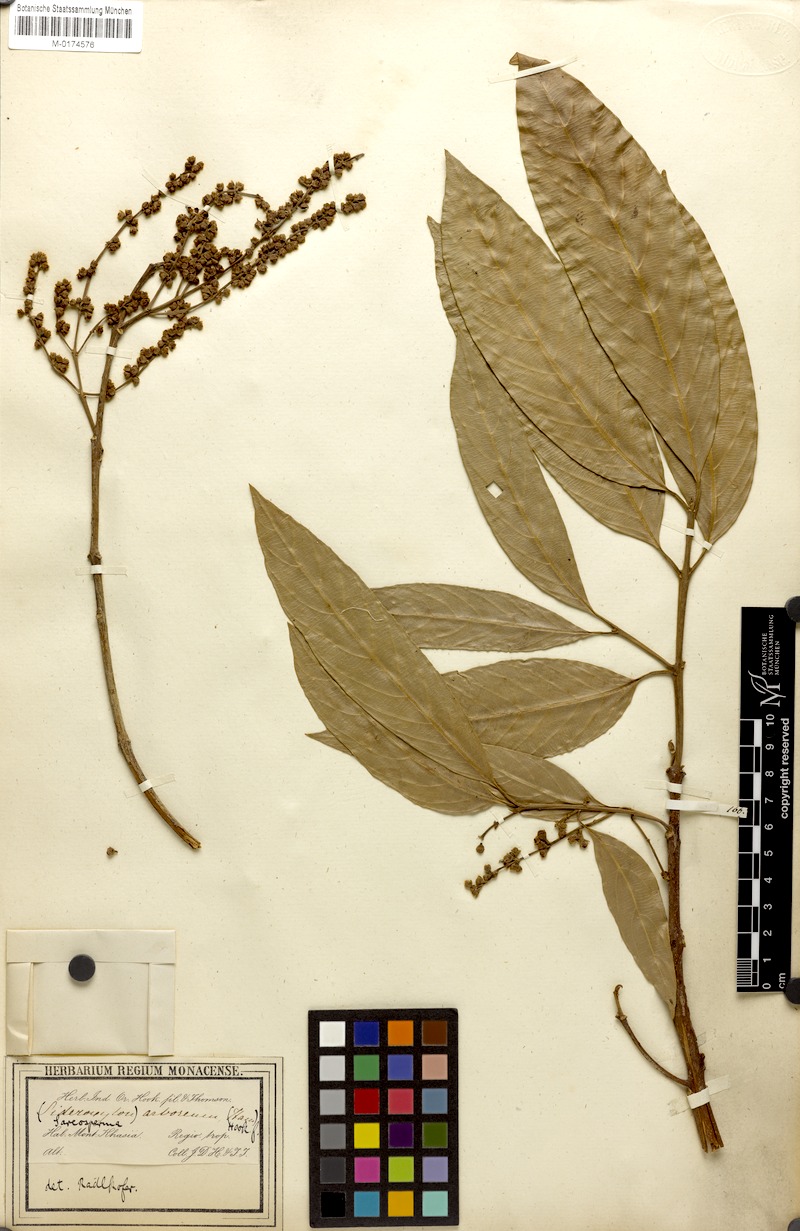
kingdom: Plantae
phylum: Tracheophyta
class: Magnoliopsida
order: Ericales
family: Sapotaceae
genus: Sarcosperma
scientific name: Sarcosperma arboreum
